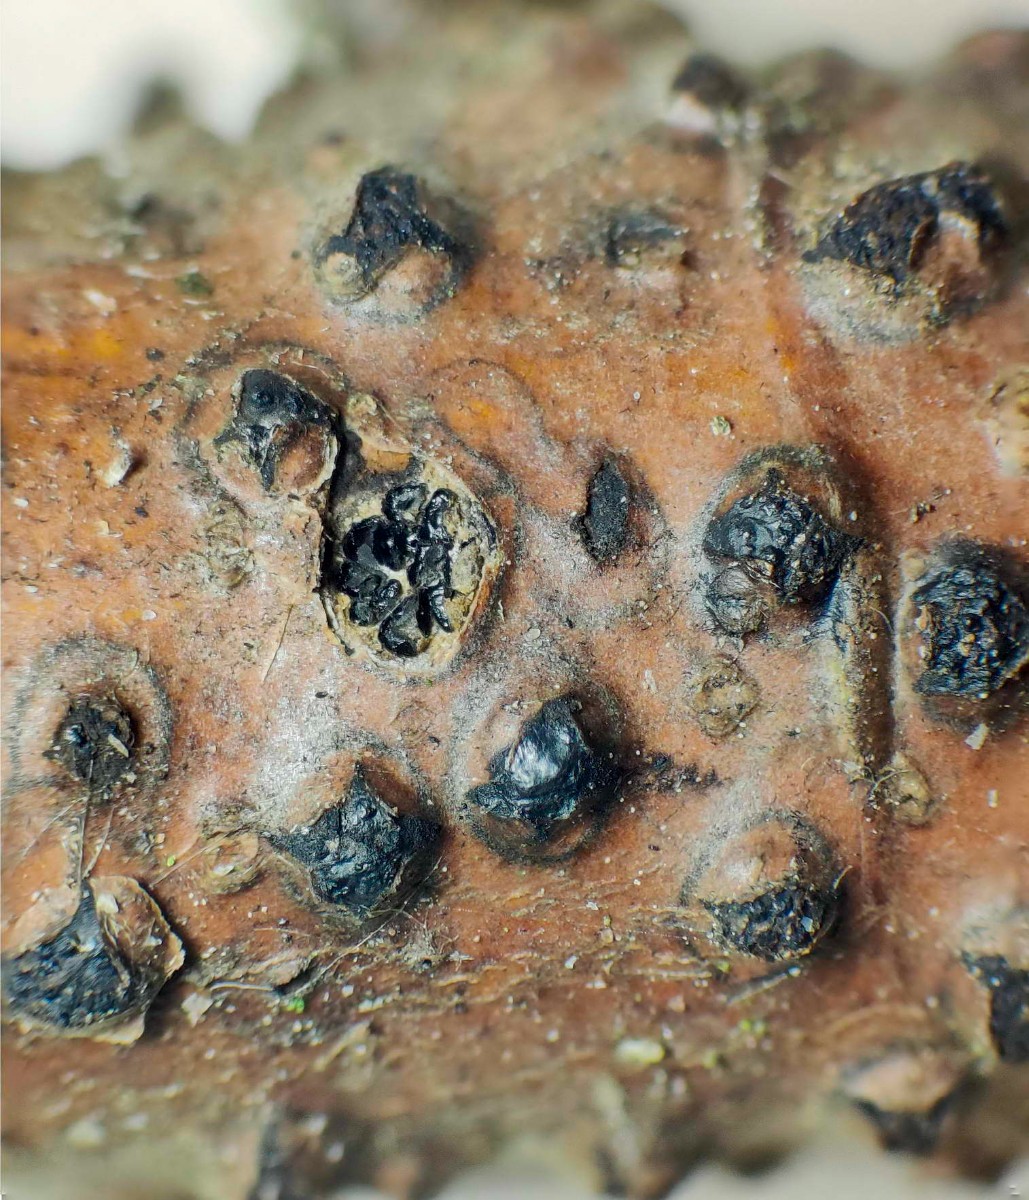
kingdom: Fungi
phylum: Ascomycota
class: Sordariomycetes
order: Xylariales
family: Diatrypaceae
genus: Diatrypella
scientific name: Diatrypella favacea
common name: klemt kulskorpe
